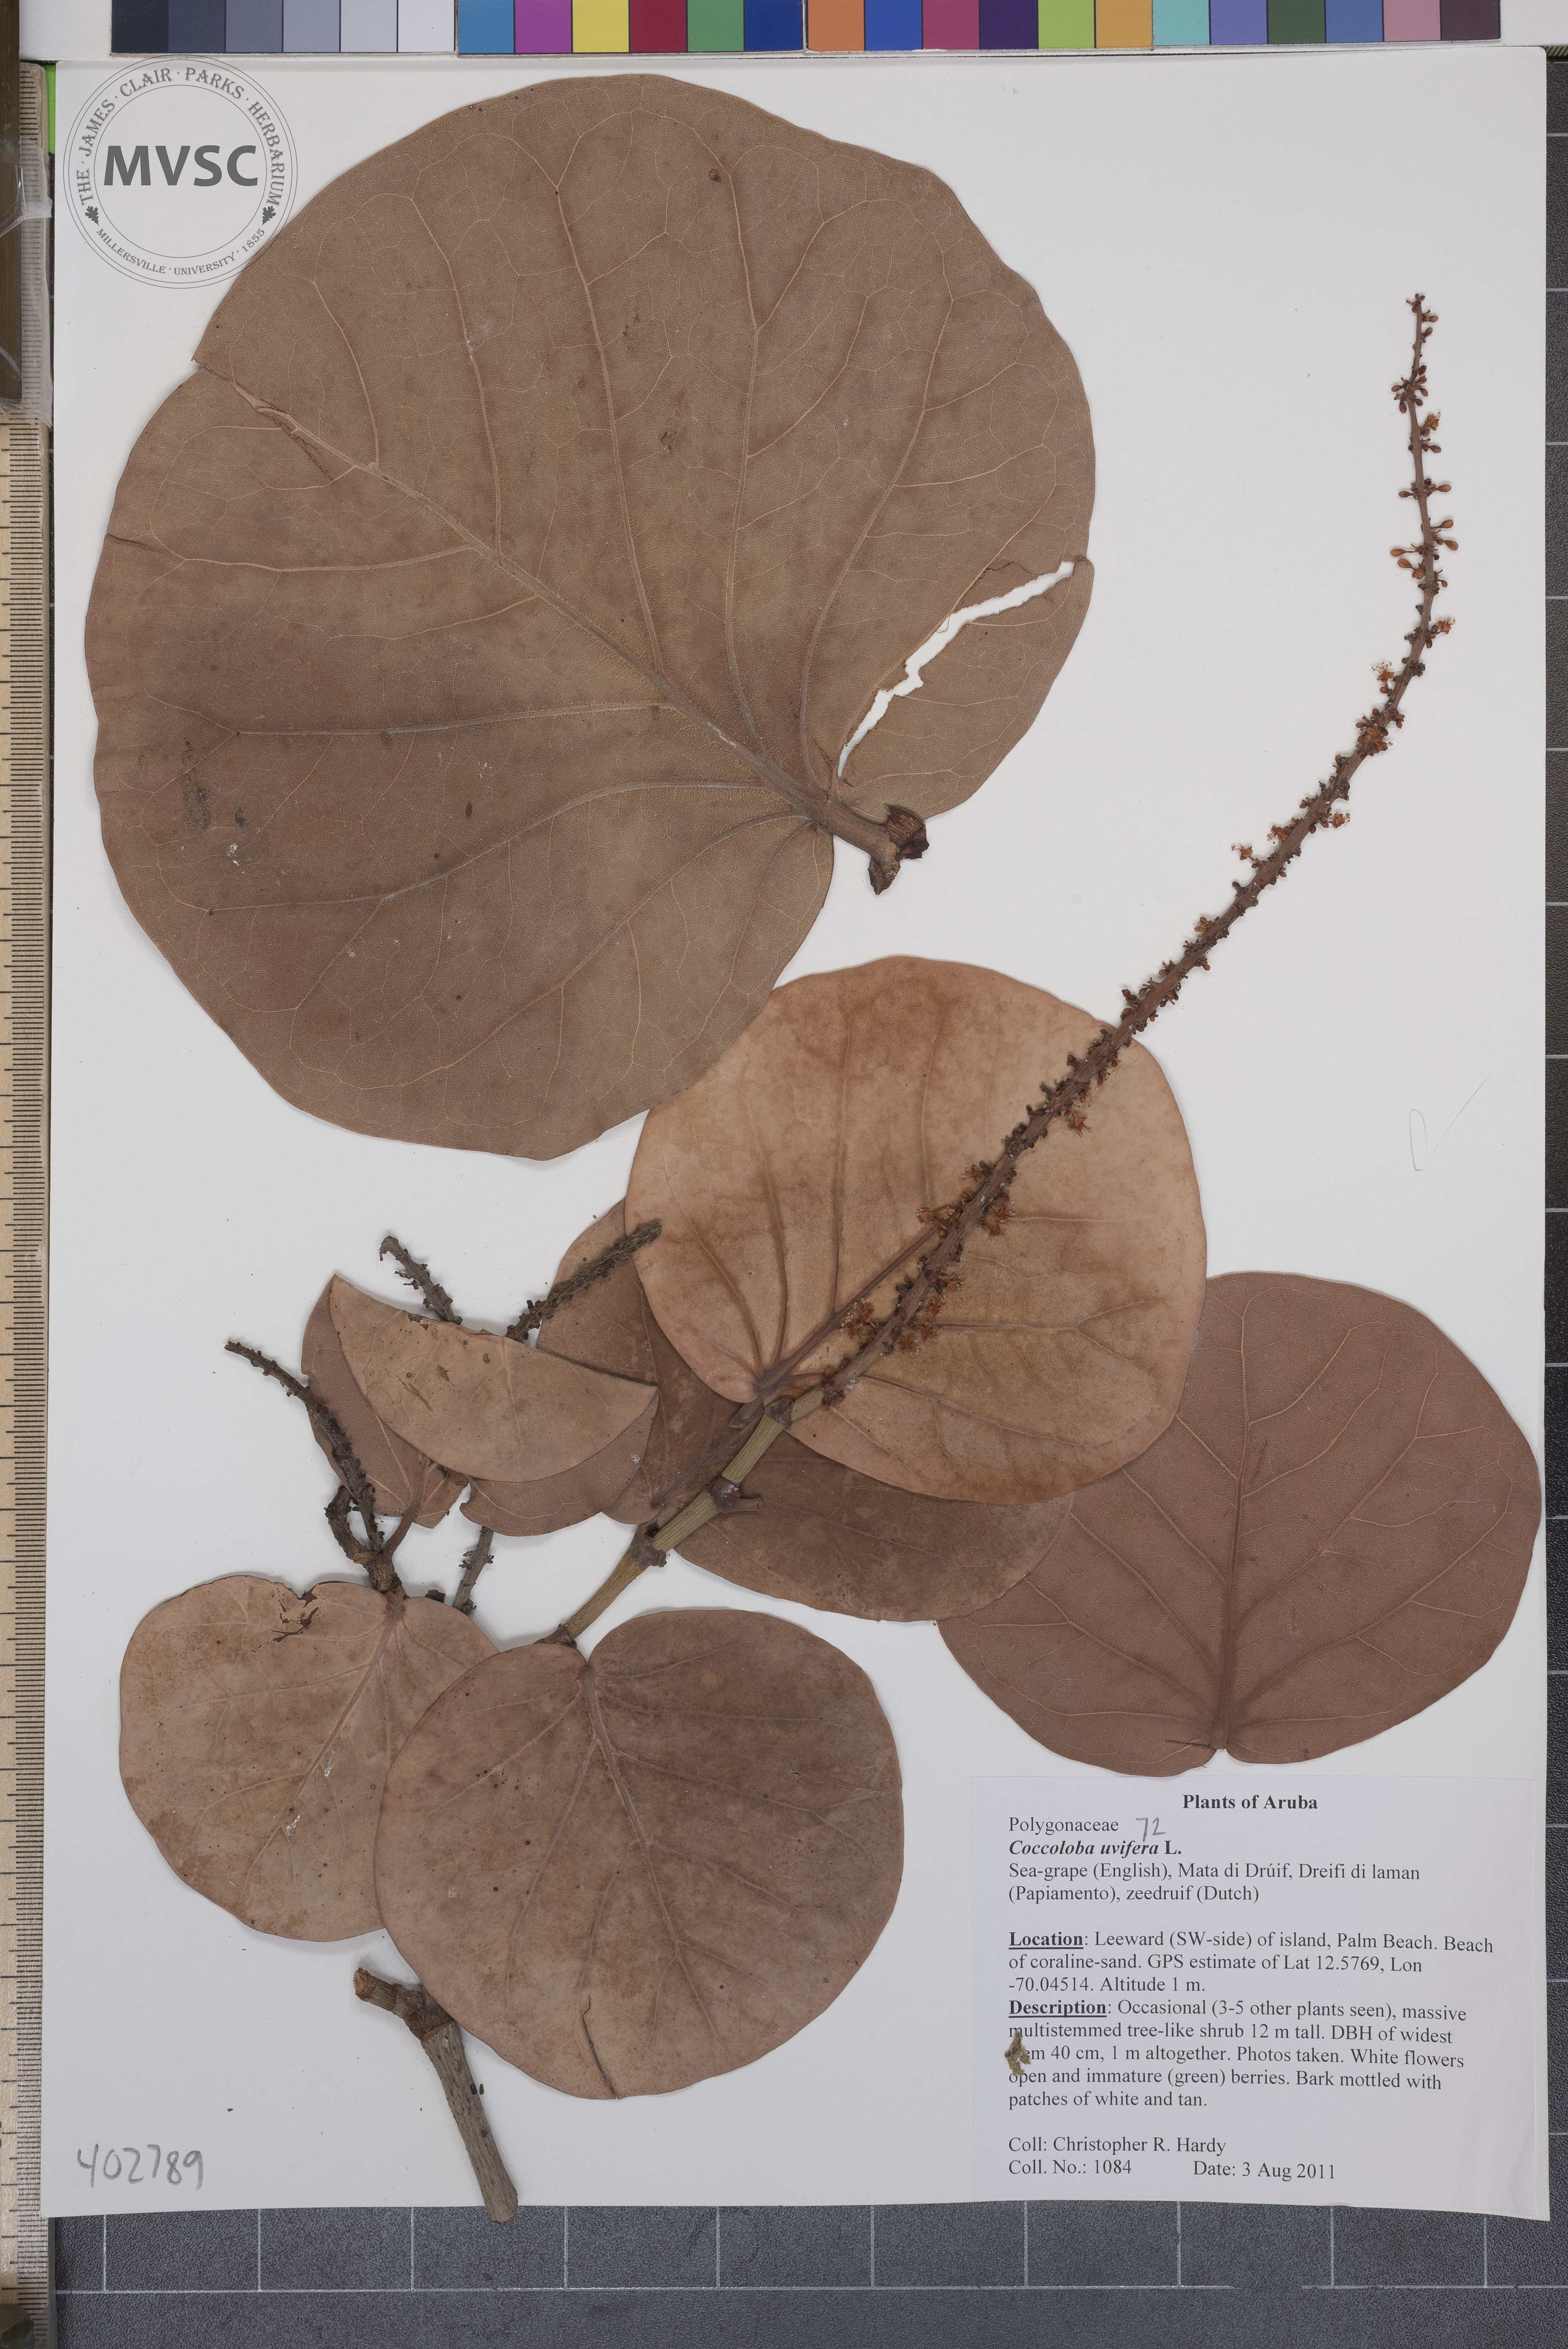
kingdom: Plantae
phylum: Tracheophyta
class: Magnoliopsida
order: Caryophyllales
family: Polygonaceae
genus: Coccoloba
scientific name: Coccoloba uvifera
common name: Sea-grape
